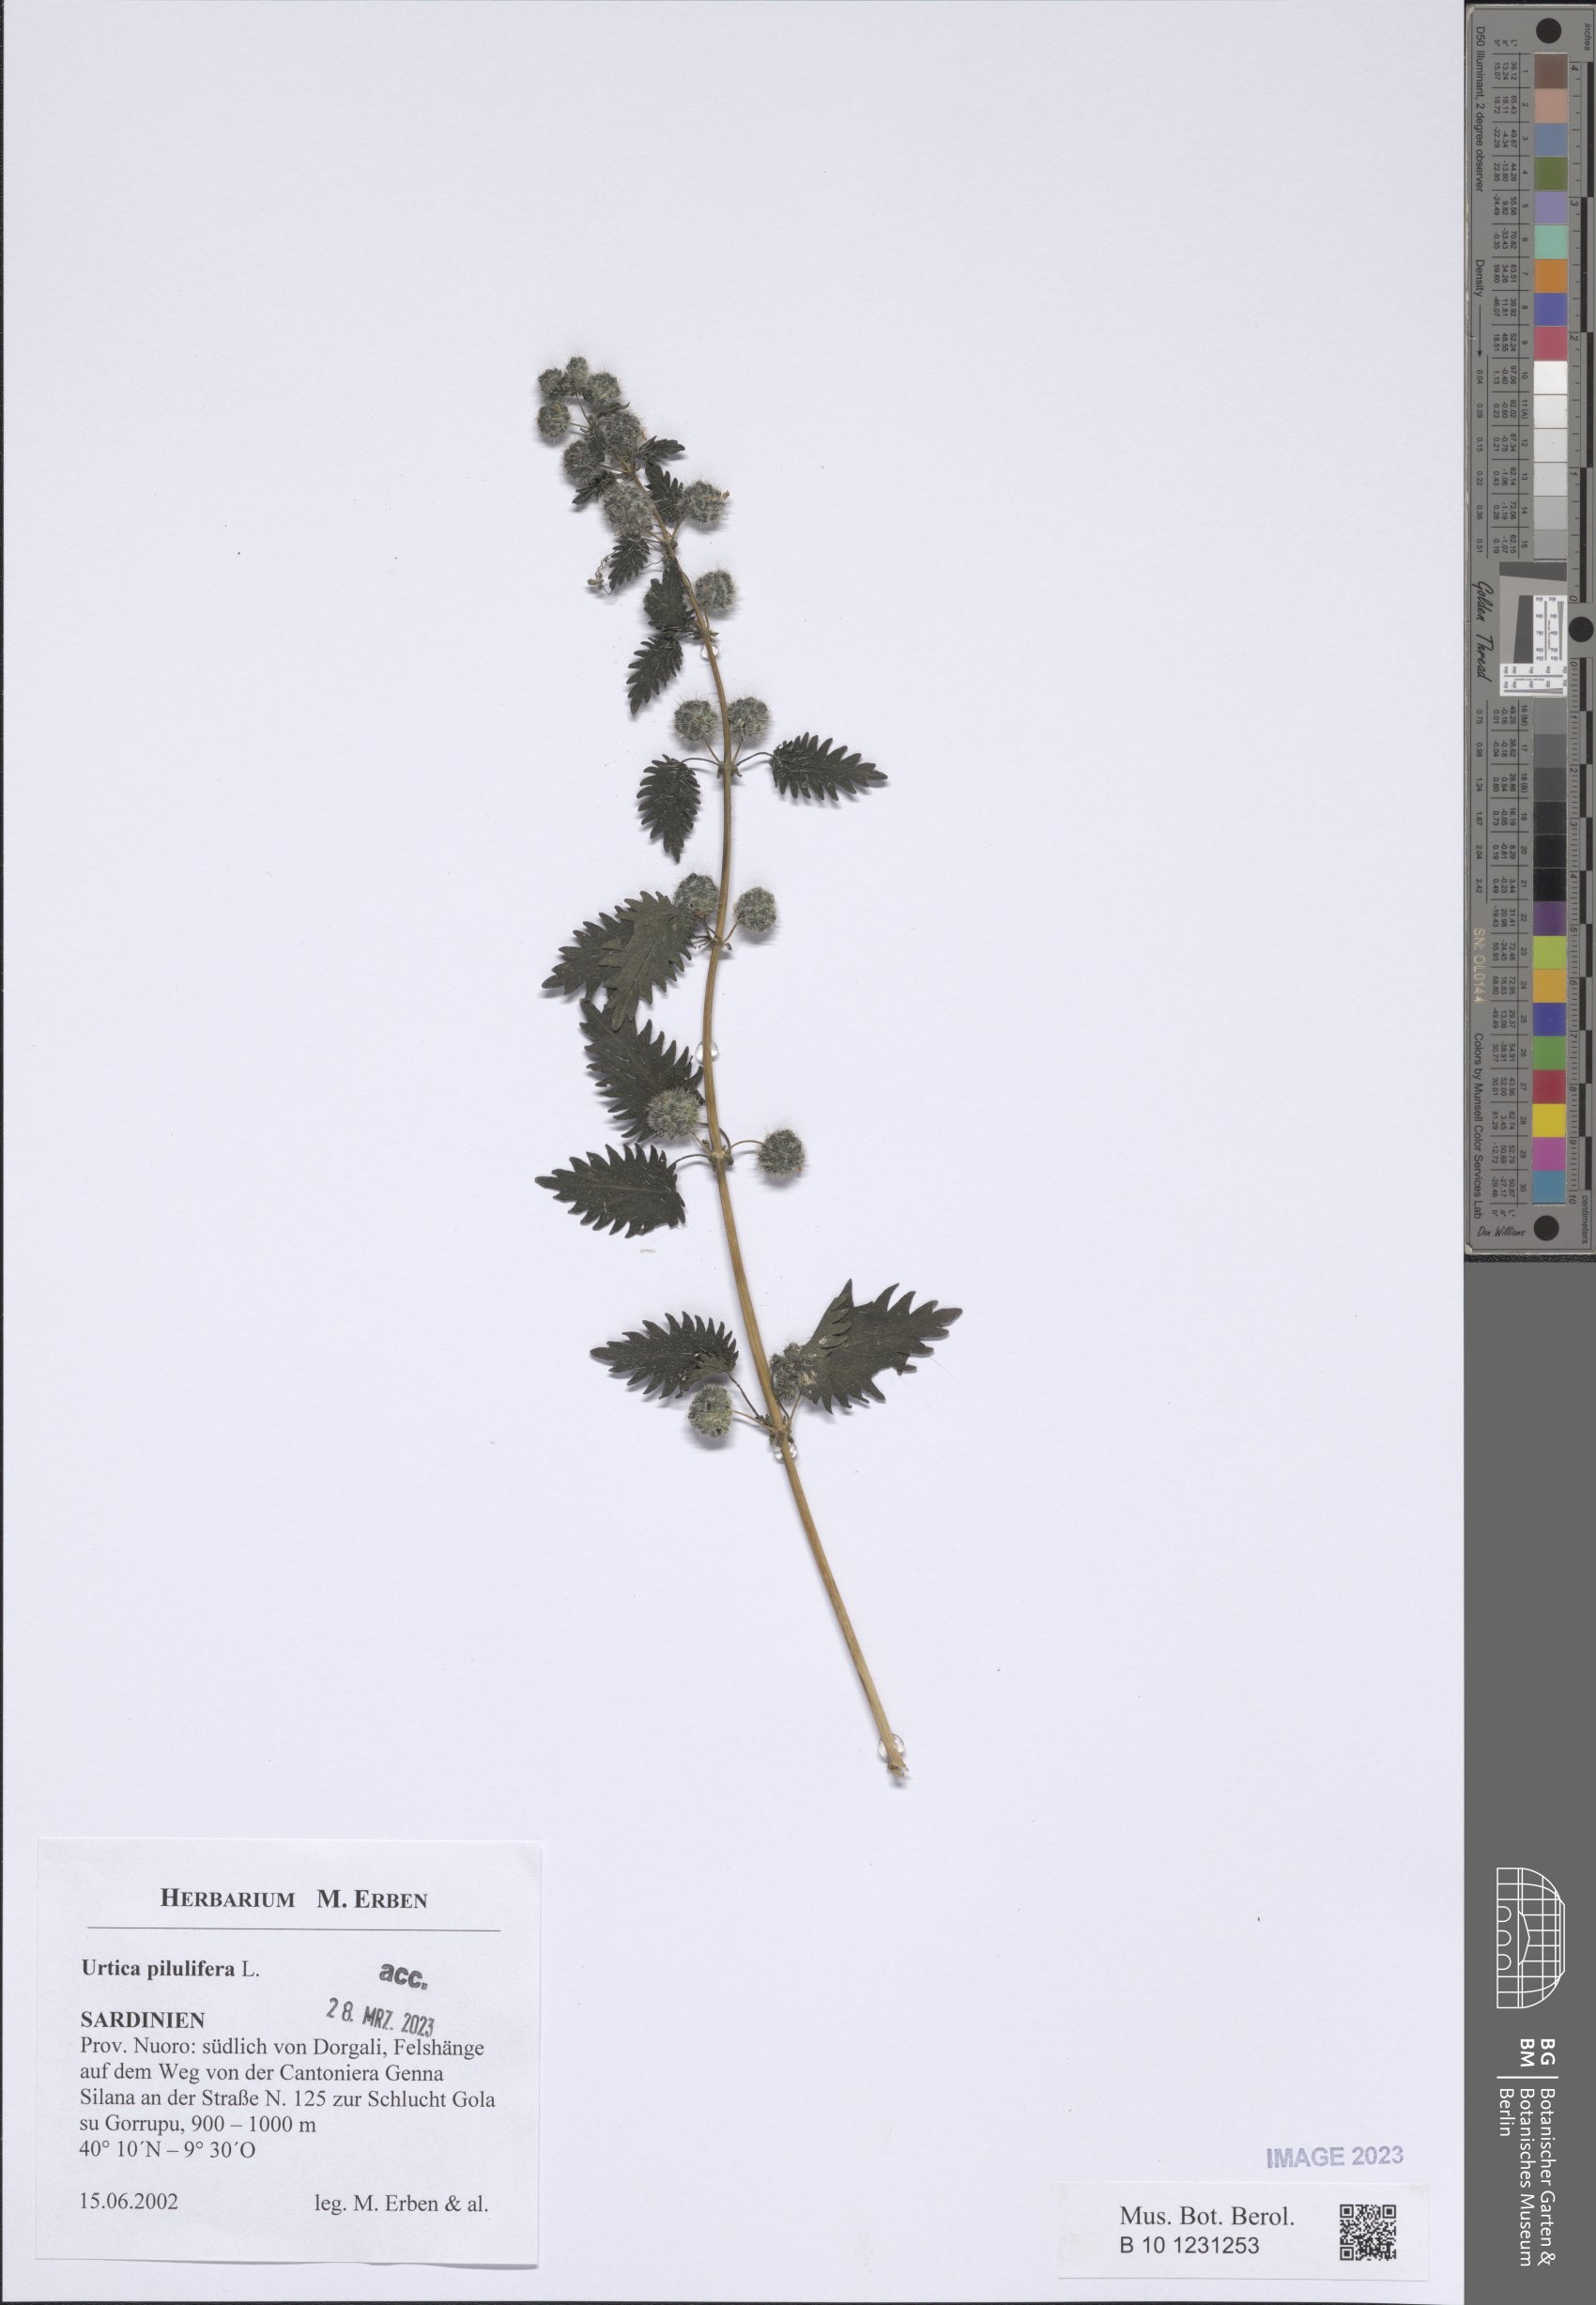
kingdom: Plantae
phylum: Tracheophyta
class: Magnoliopsida
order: Rosales
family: Urticaceae
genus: Urtica
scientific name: Urtica pilulifera
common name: Roman nettle
